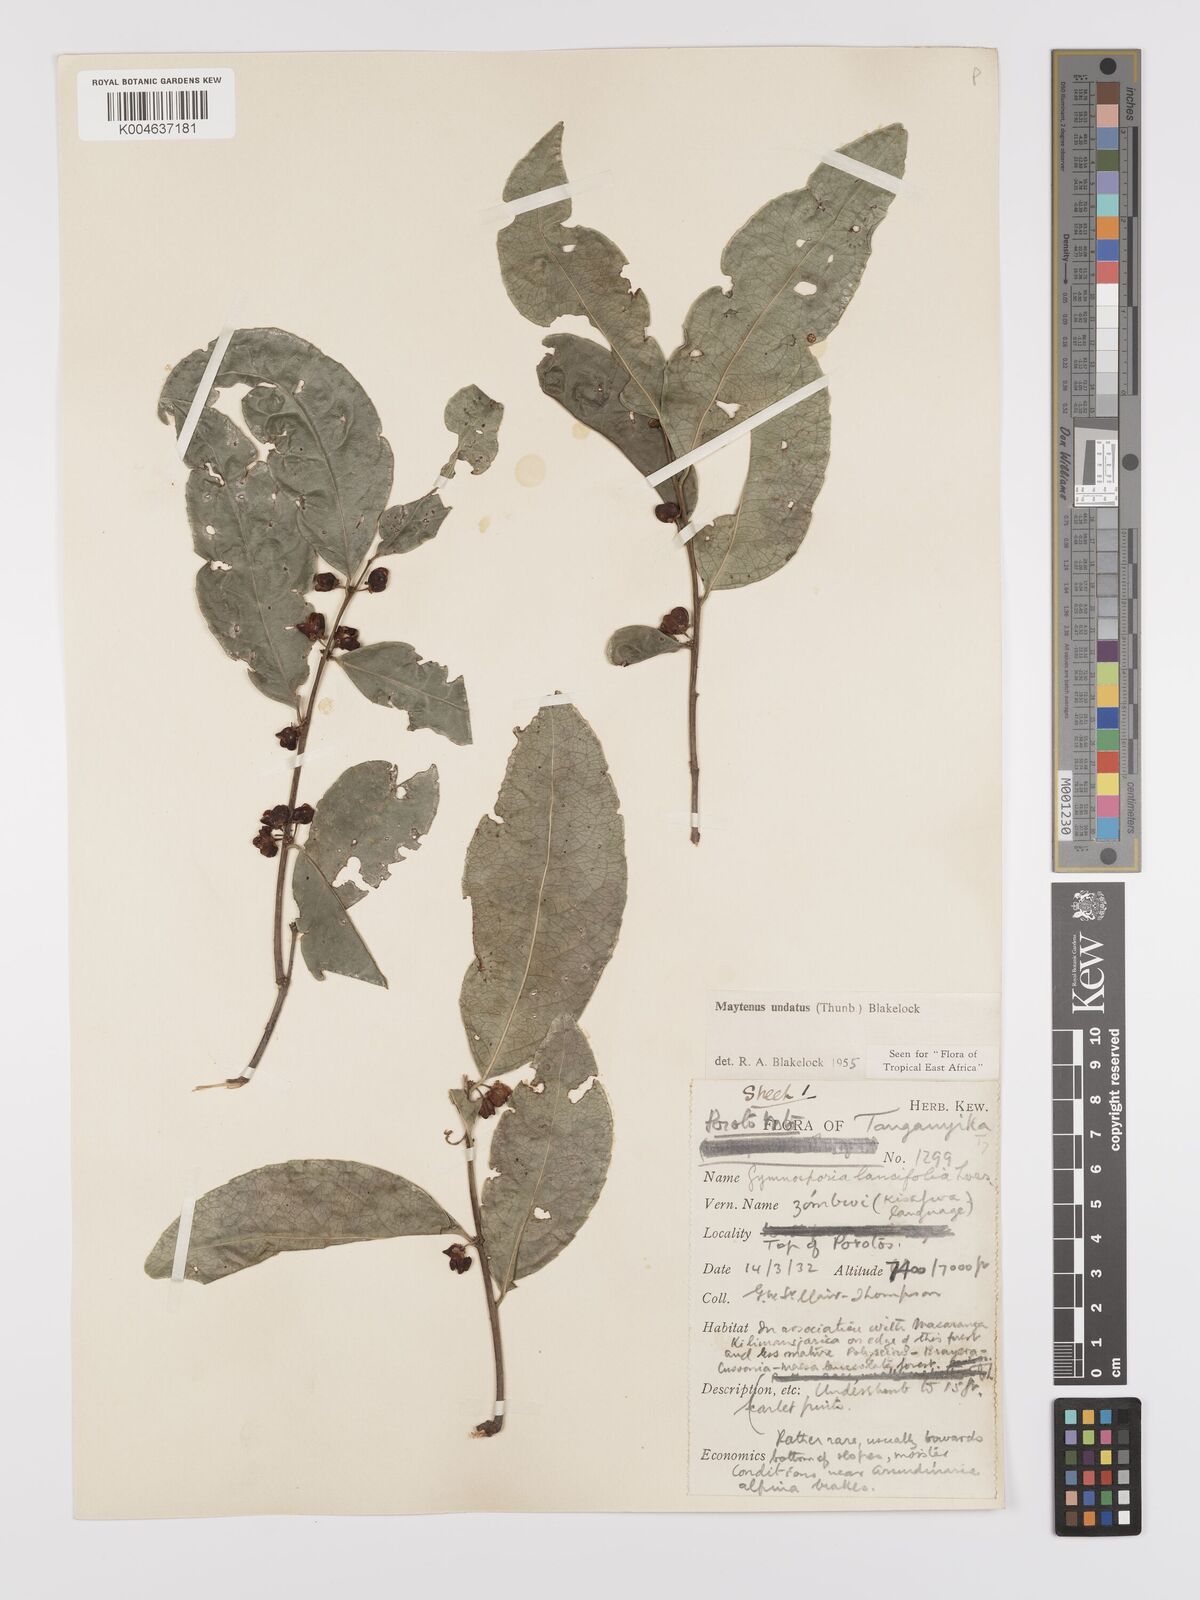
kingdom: Plantae
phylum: Tracheophyta
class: Magnoliopsida
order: Celastrales
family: Celastraceae
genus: Gymnosporia
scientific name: Gymnosporia undata
